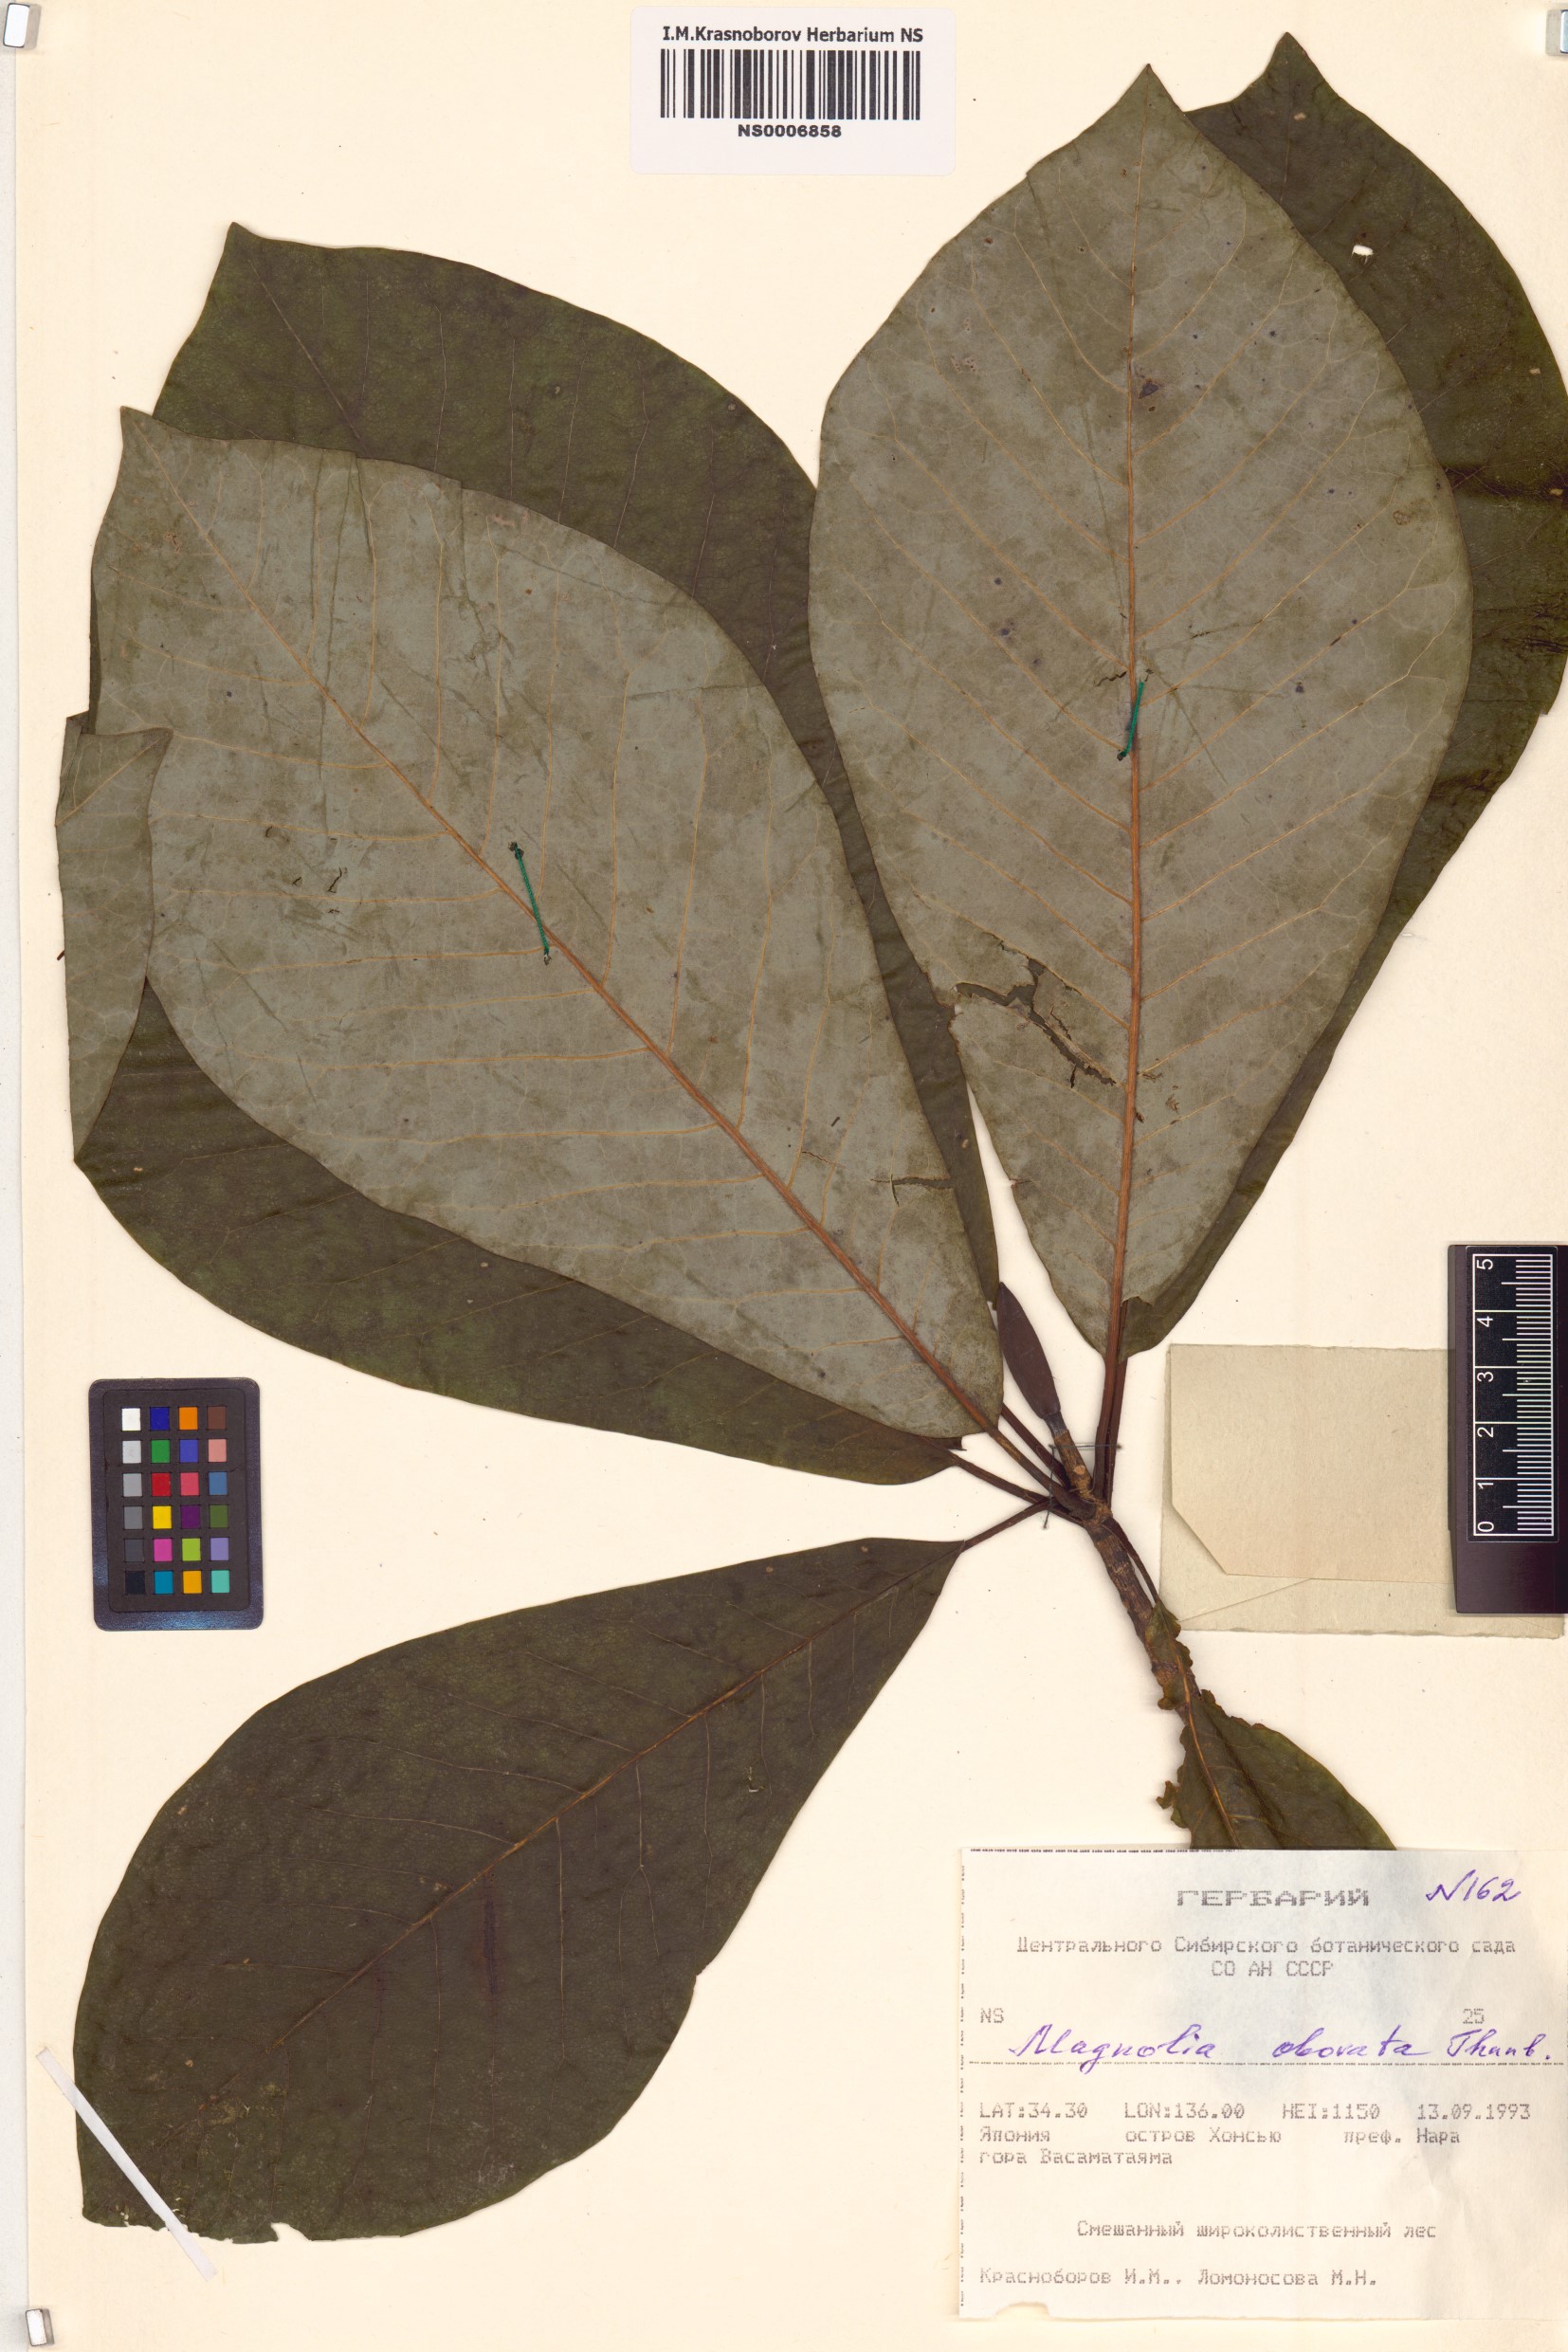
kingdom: Plantae
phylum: Tracheophyta
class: Magnoliopsida
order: Magnoliales
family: Magnoliaceae
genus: Magnolia
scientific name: Magnolia obovata
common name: Japanese whitebark magnolia
